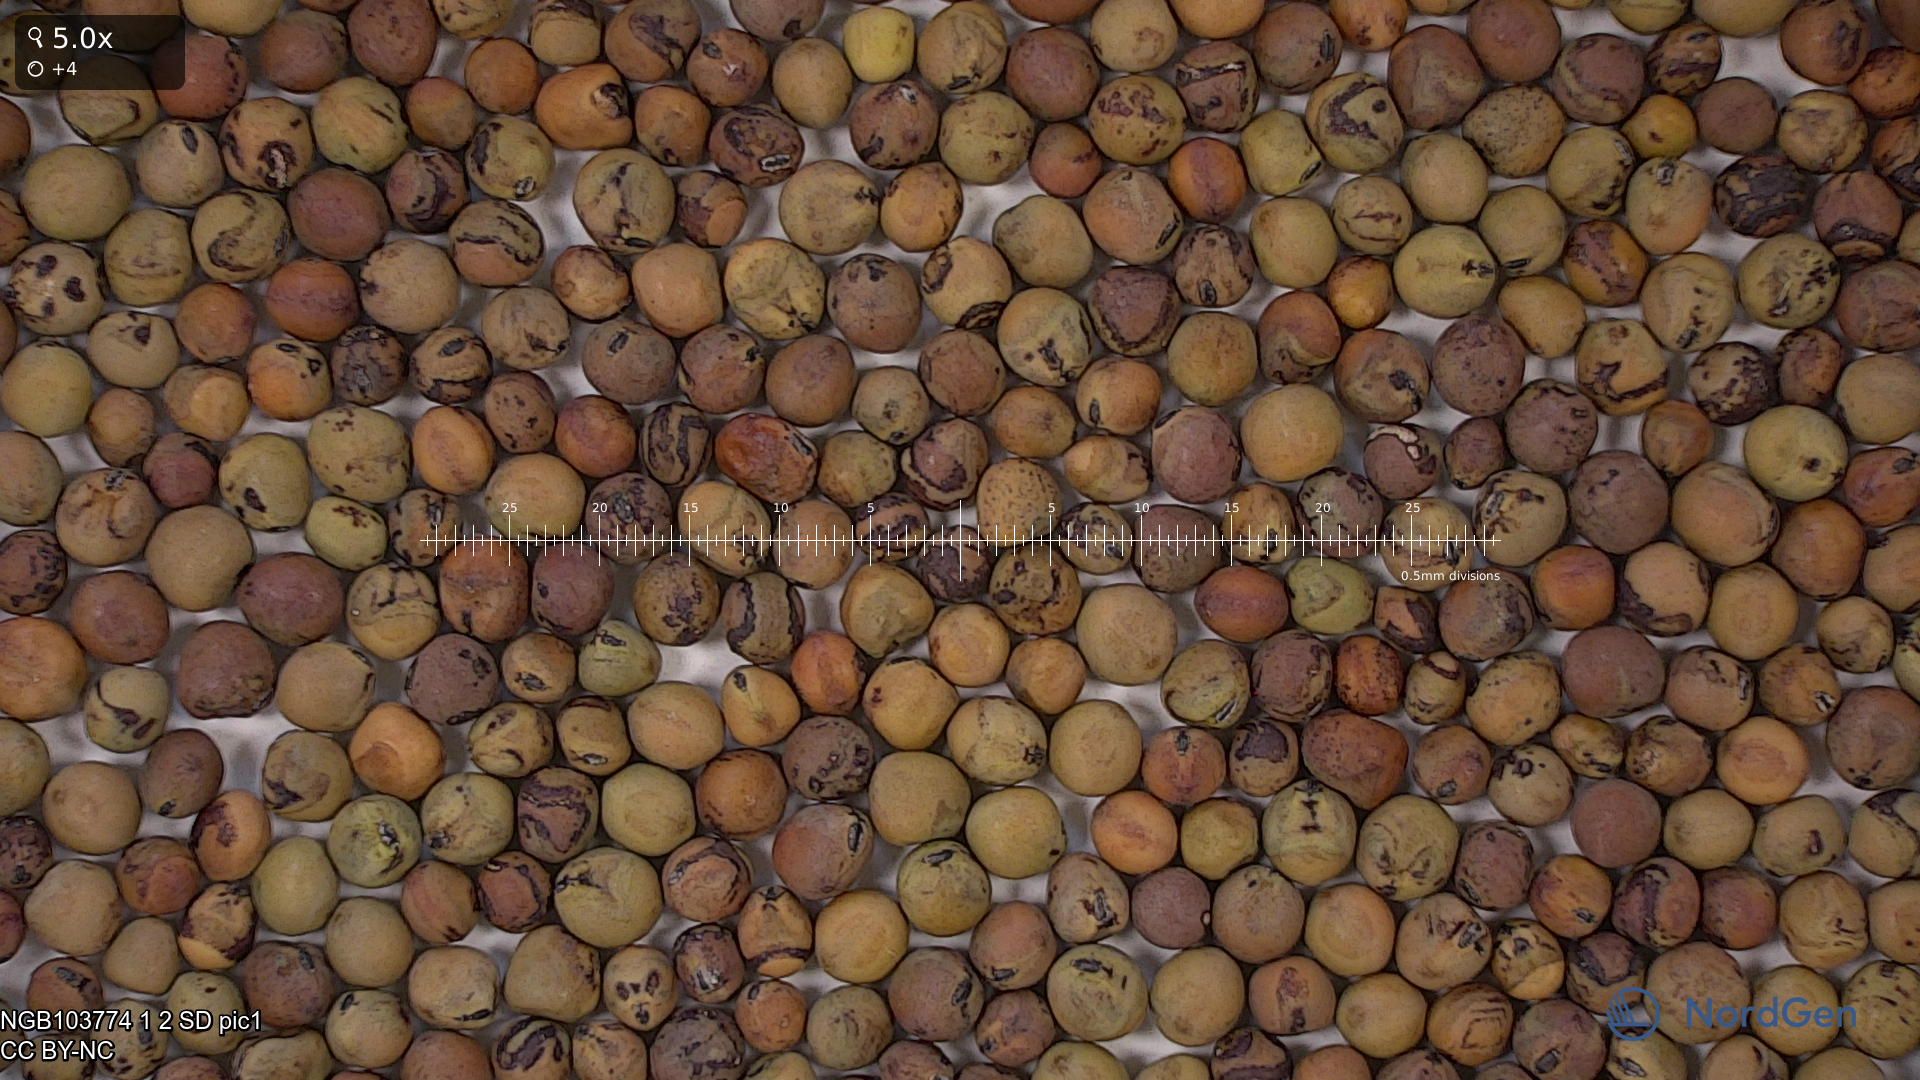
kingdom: Plantae
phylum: Tracheophyta
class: Magnoliopsida
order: Fabales
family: Fabaceae
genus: Lathyrus
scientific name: Lathyrus oleraceus
